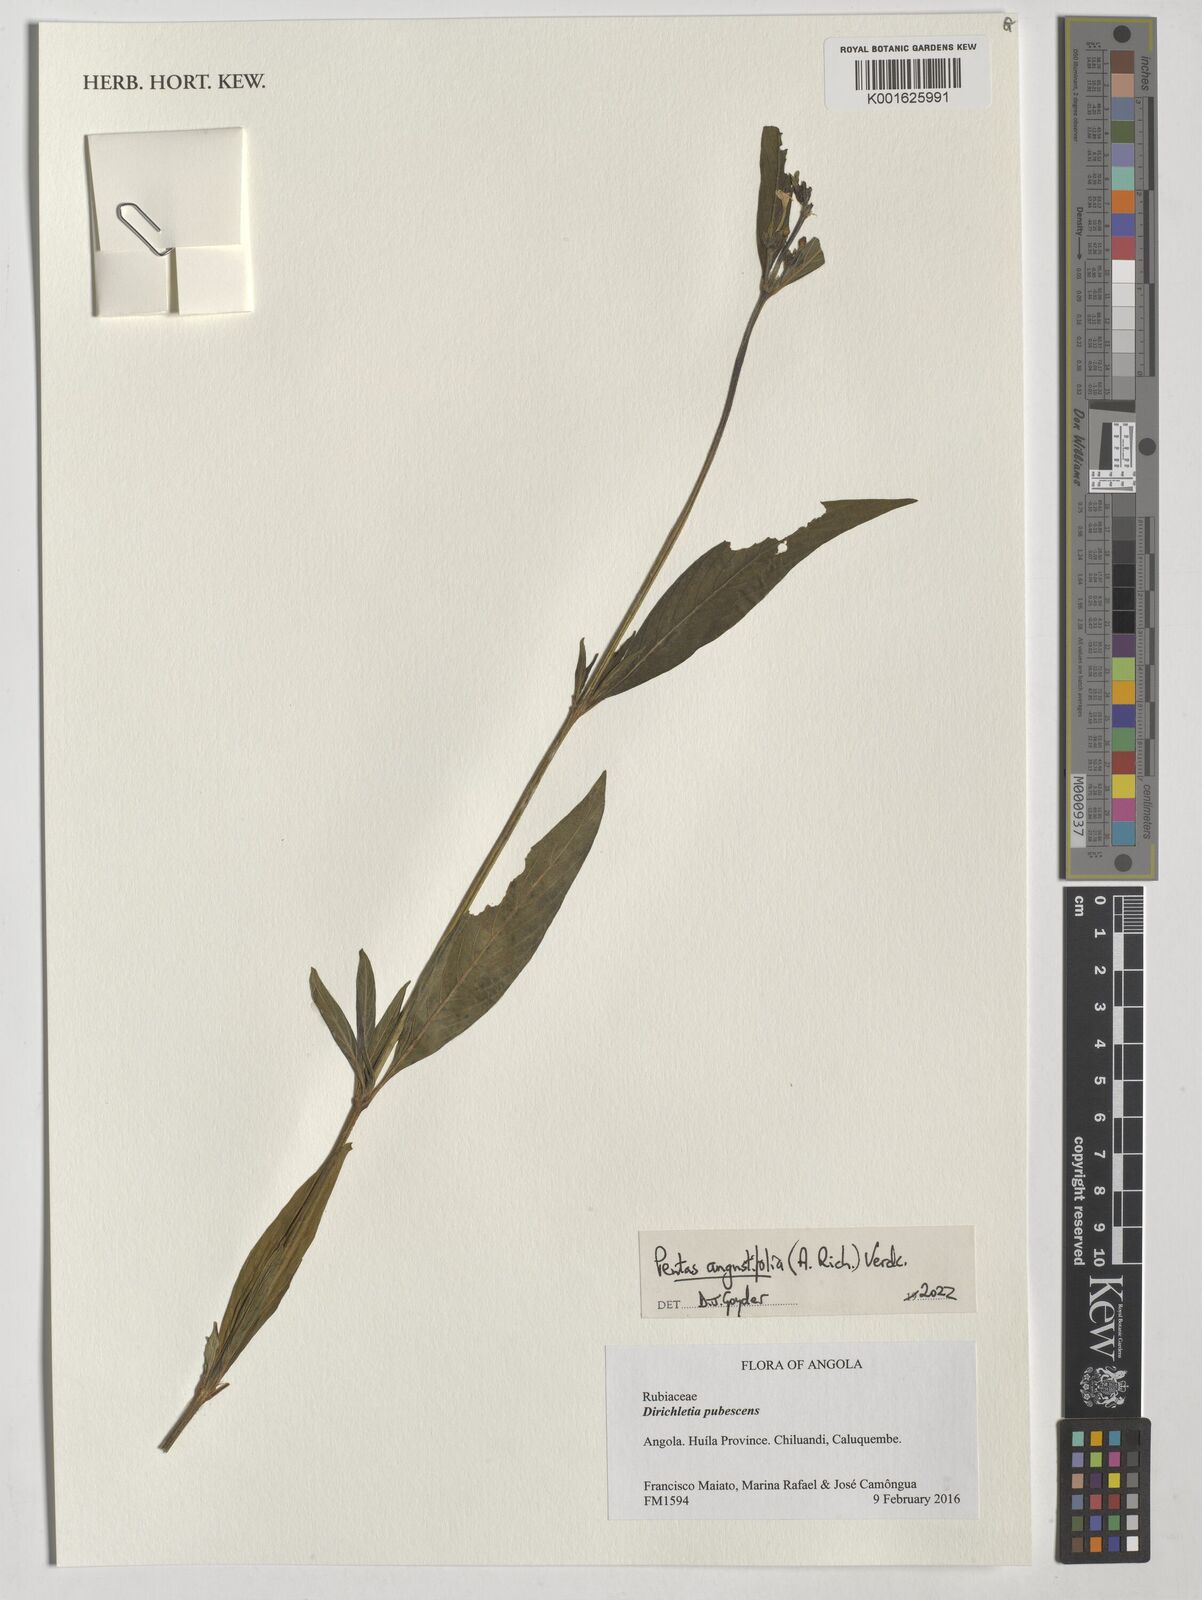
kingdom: Plantae
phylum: Tracheophyta
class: Magnoliopsida
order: Gentianales
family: Rubiaceae
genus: Pentas
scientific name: Pentas angustifolia
